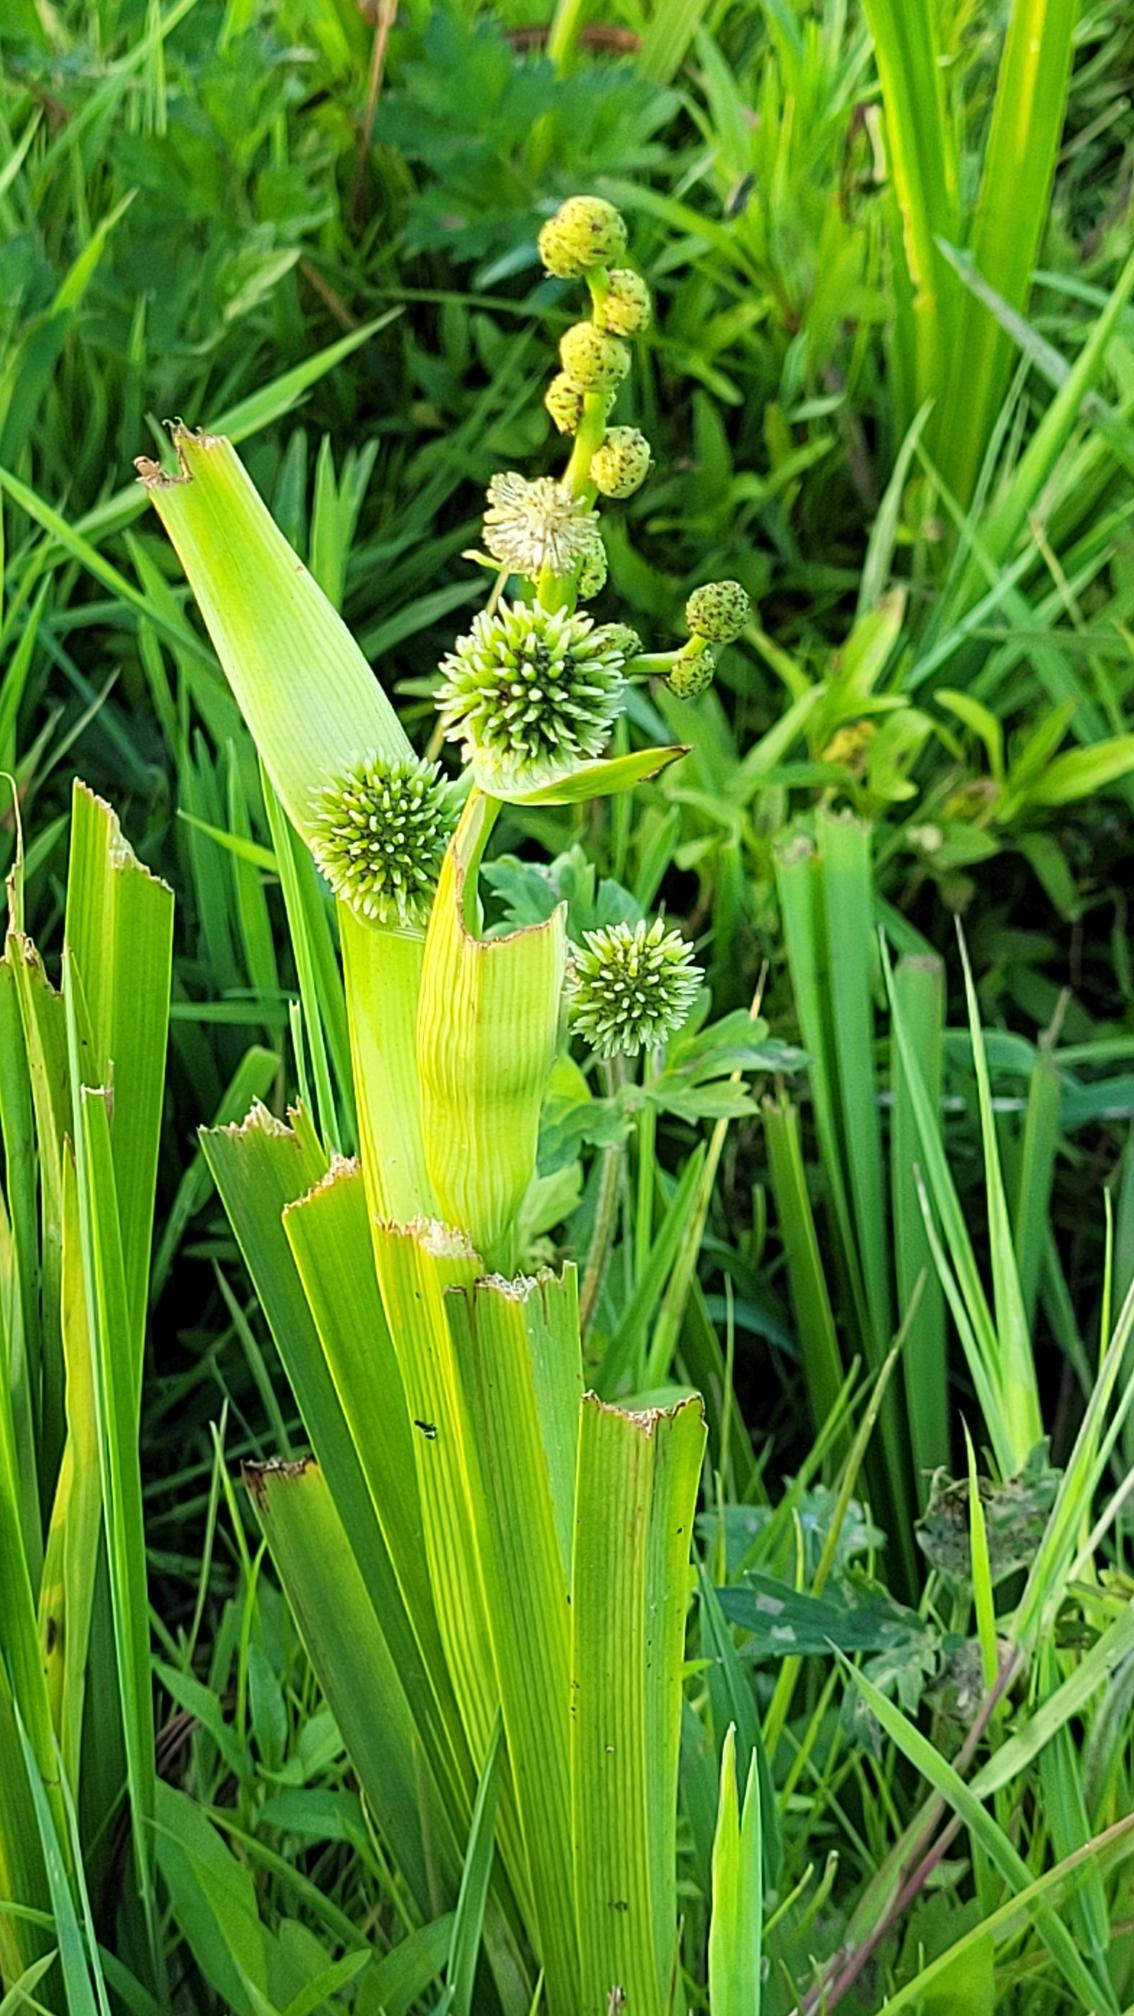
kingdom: Plantae
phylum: Tracheophyta
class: Liliopsida
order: Poales
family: Typhaceae
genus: Sparganium
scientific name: Sparganium erectum
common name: Grenet pindsvineknop
